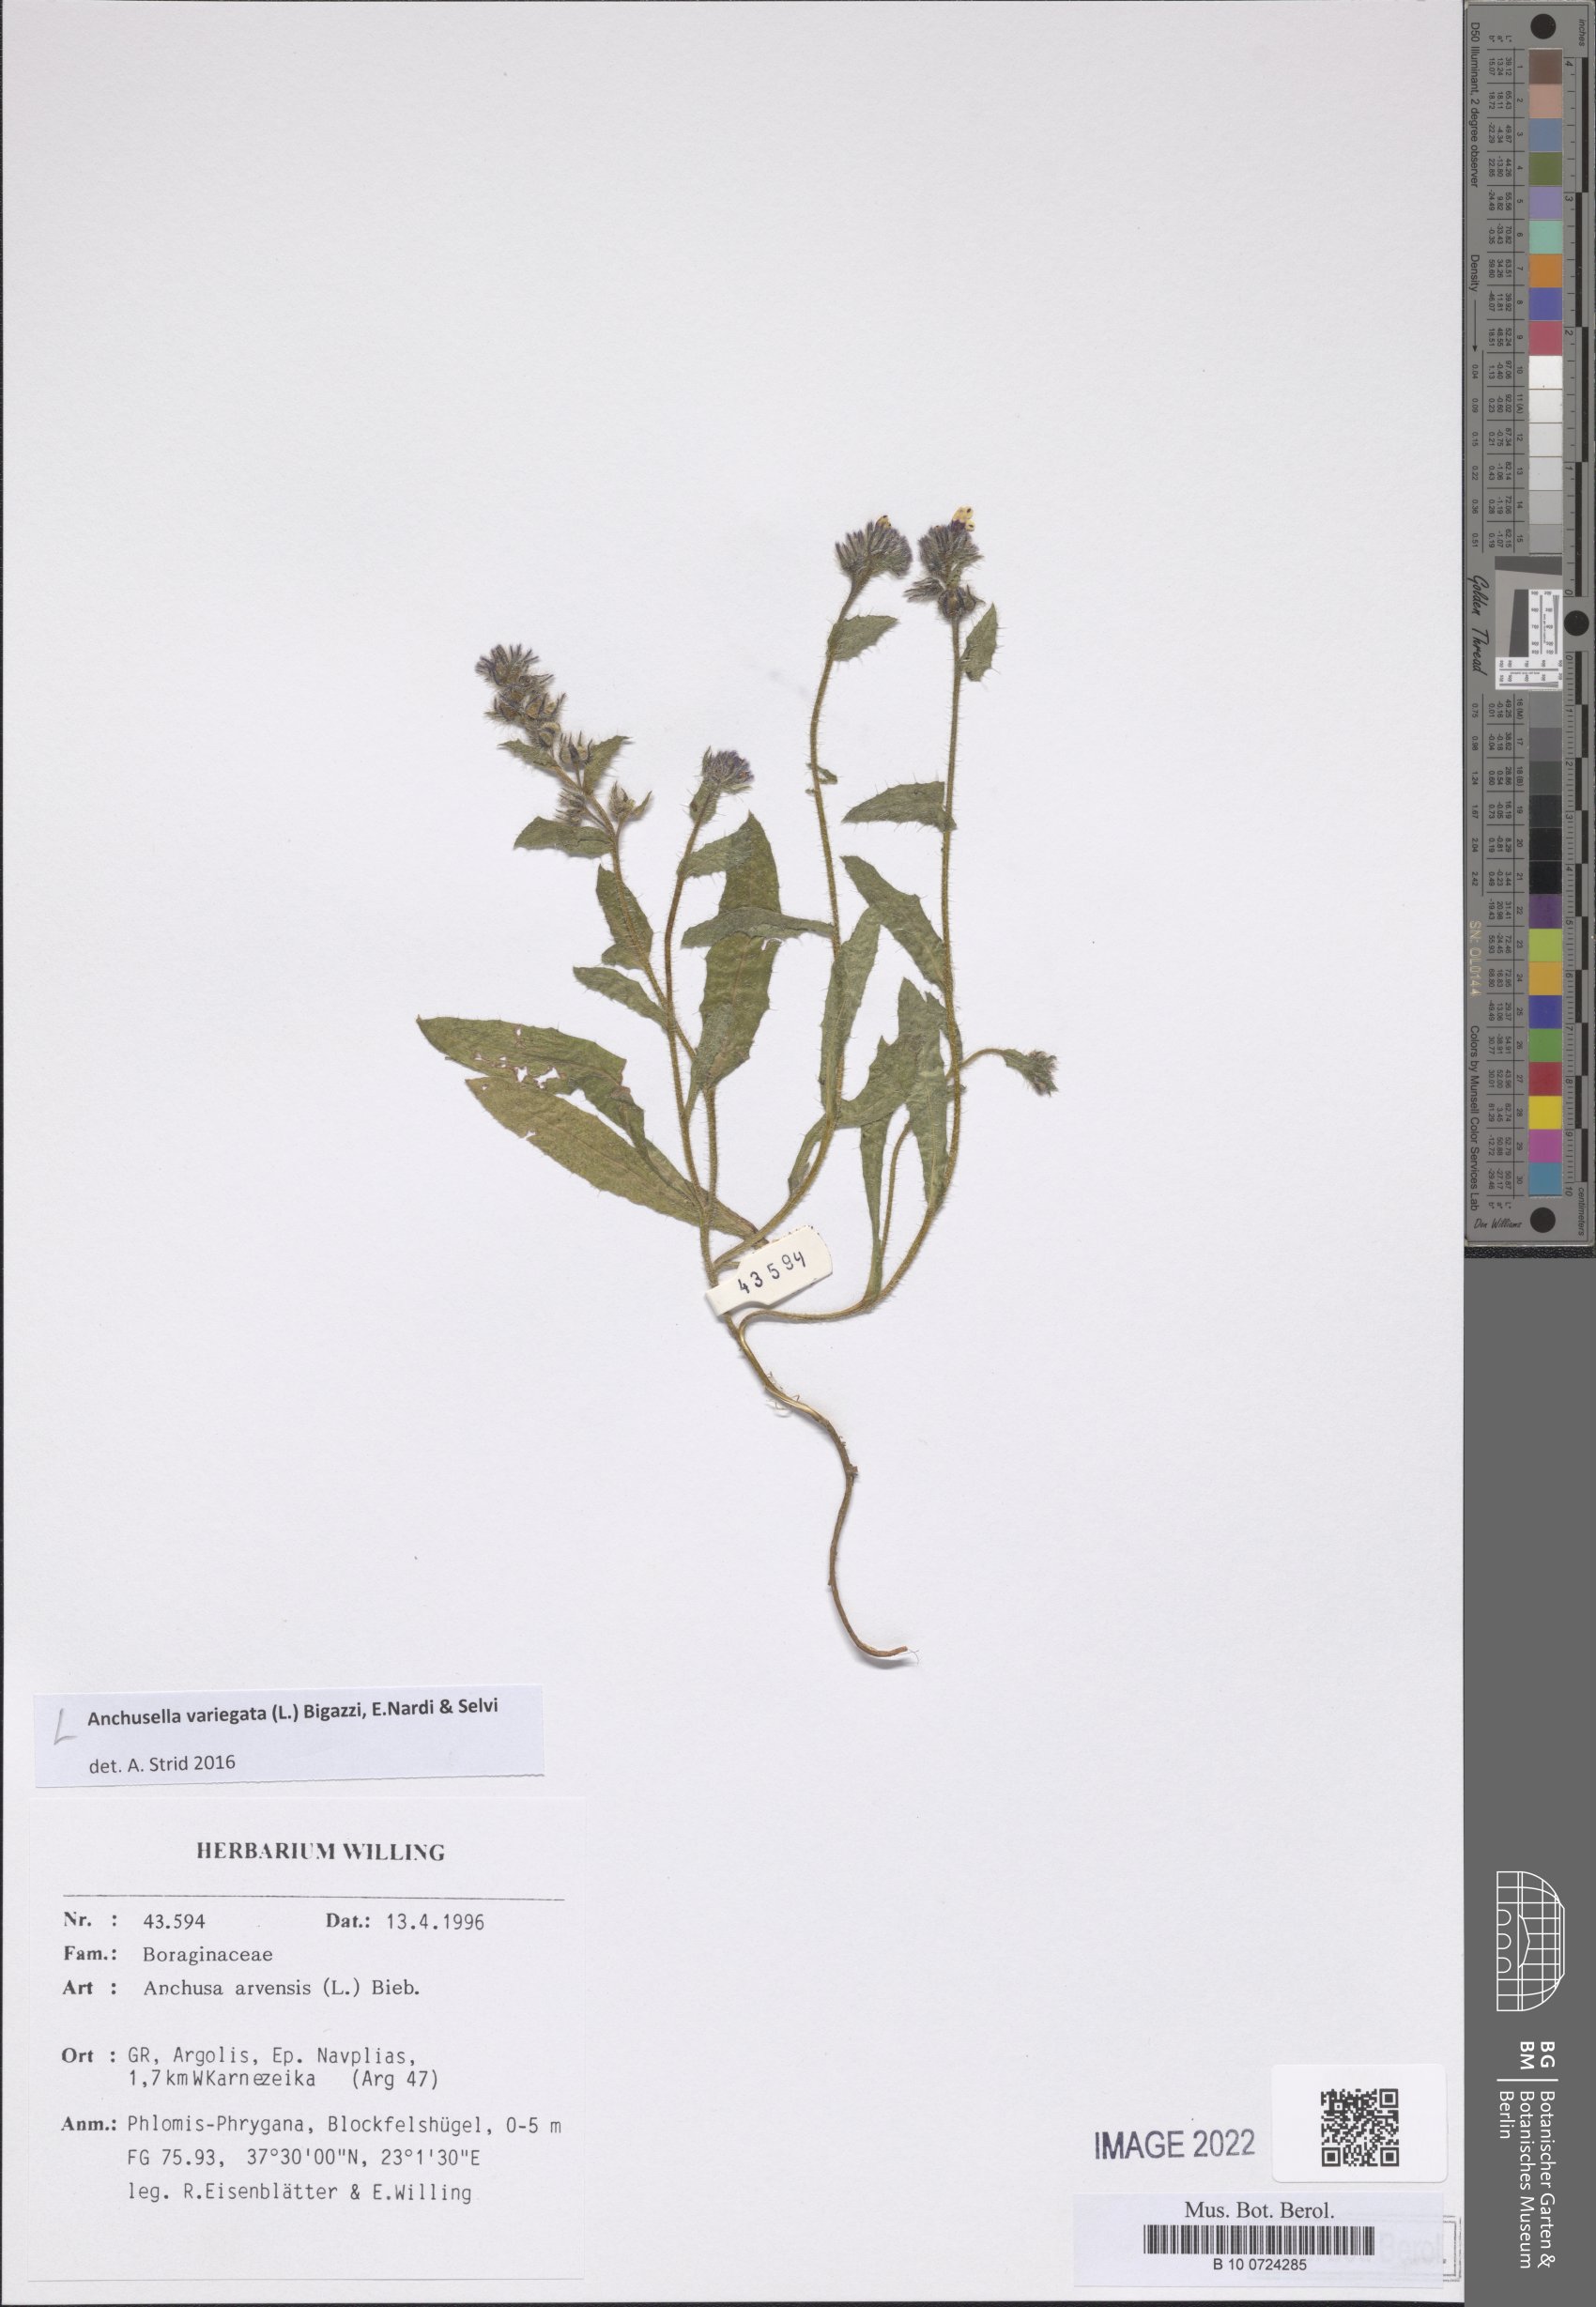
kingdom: Plantae
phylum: Tracheophyta
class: Magnoliopsida
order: Boraginales
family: Boraginaceae
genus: Anchusella
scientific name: Anchusella cretica
